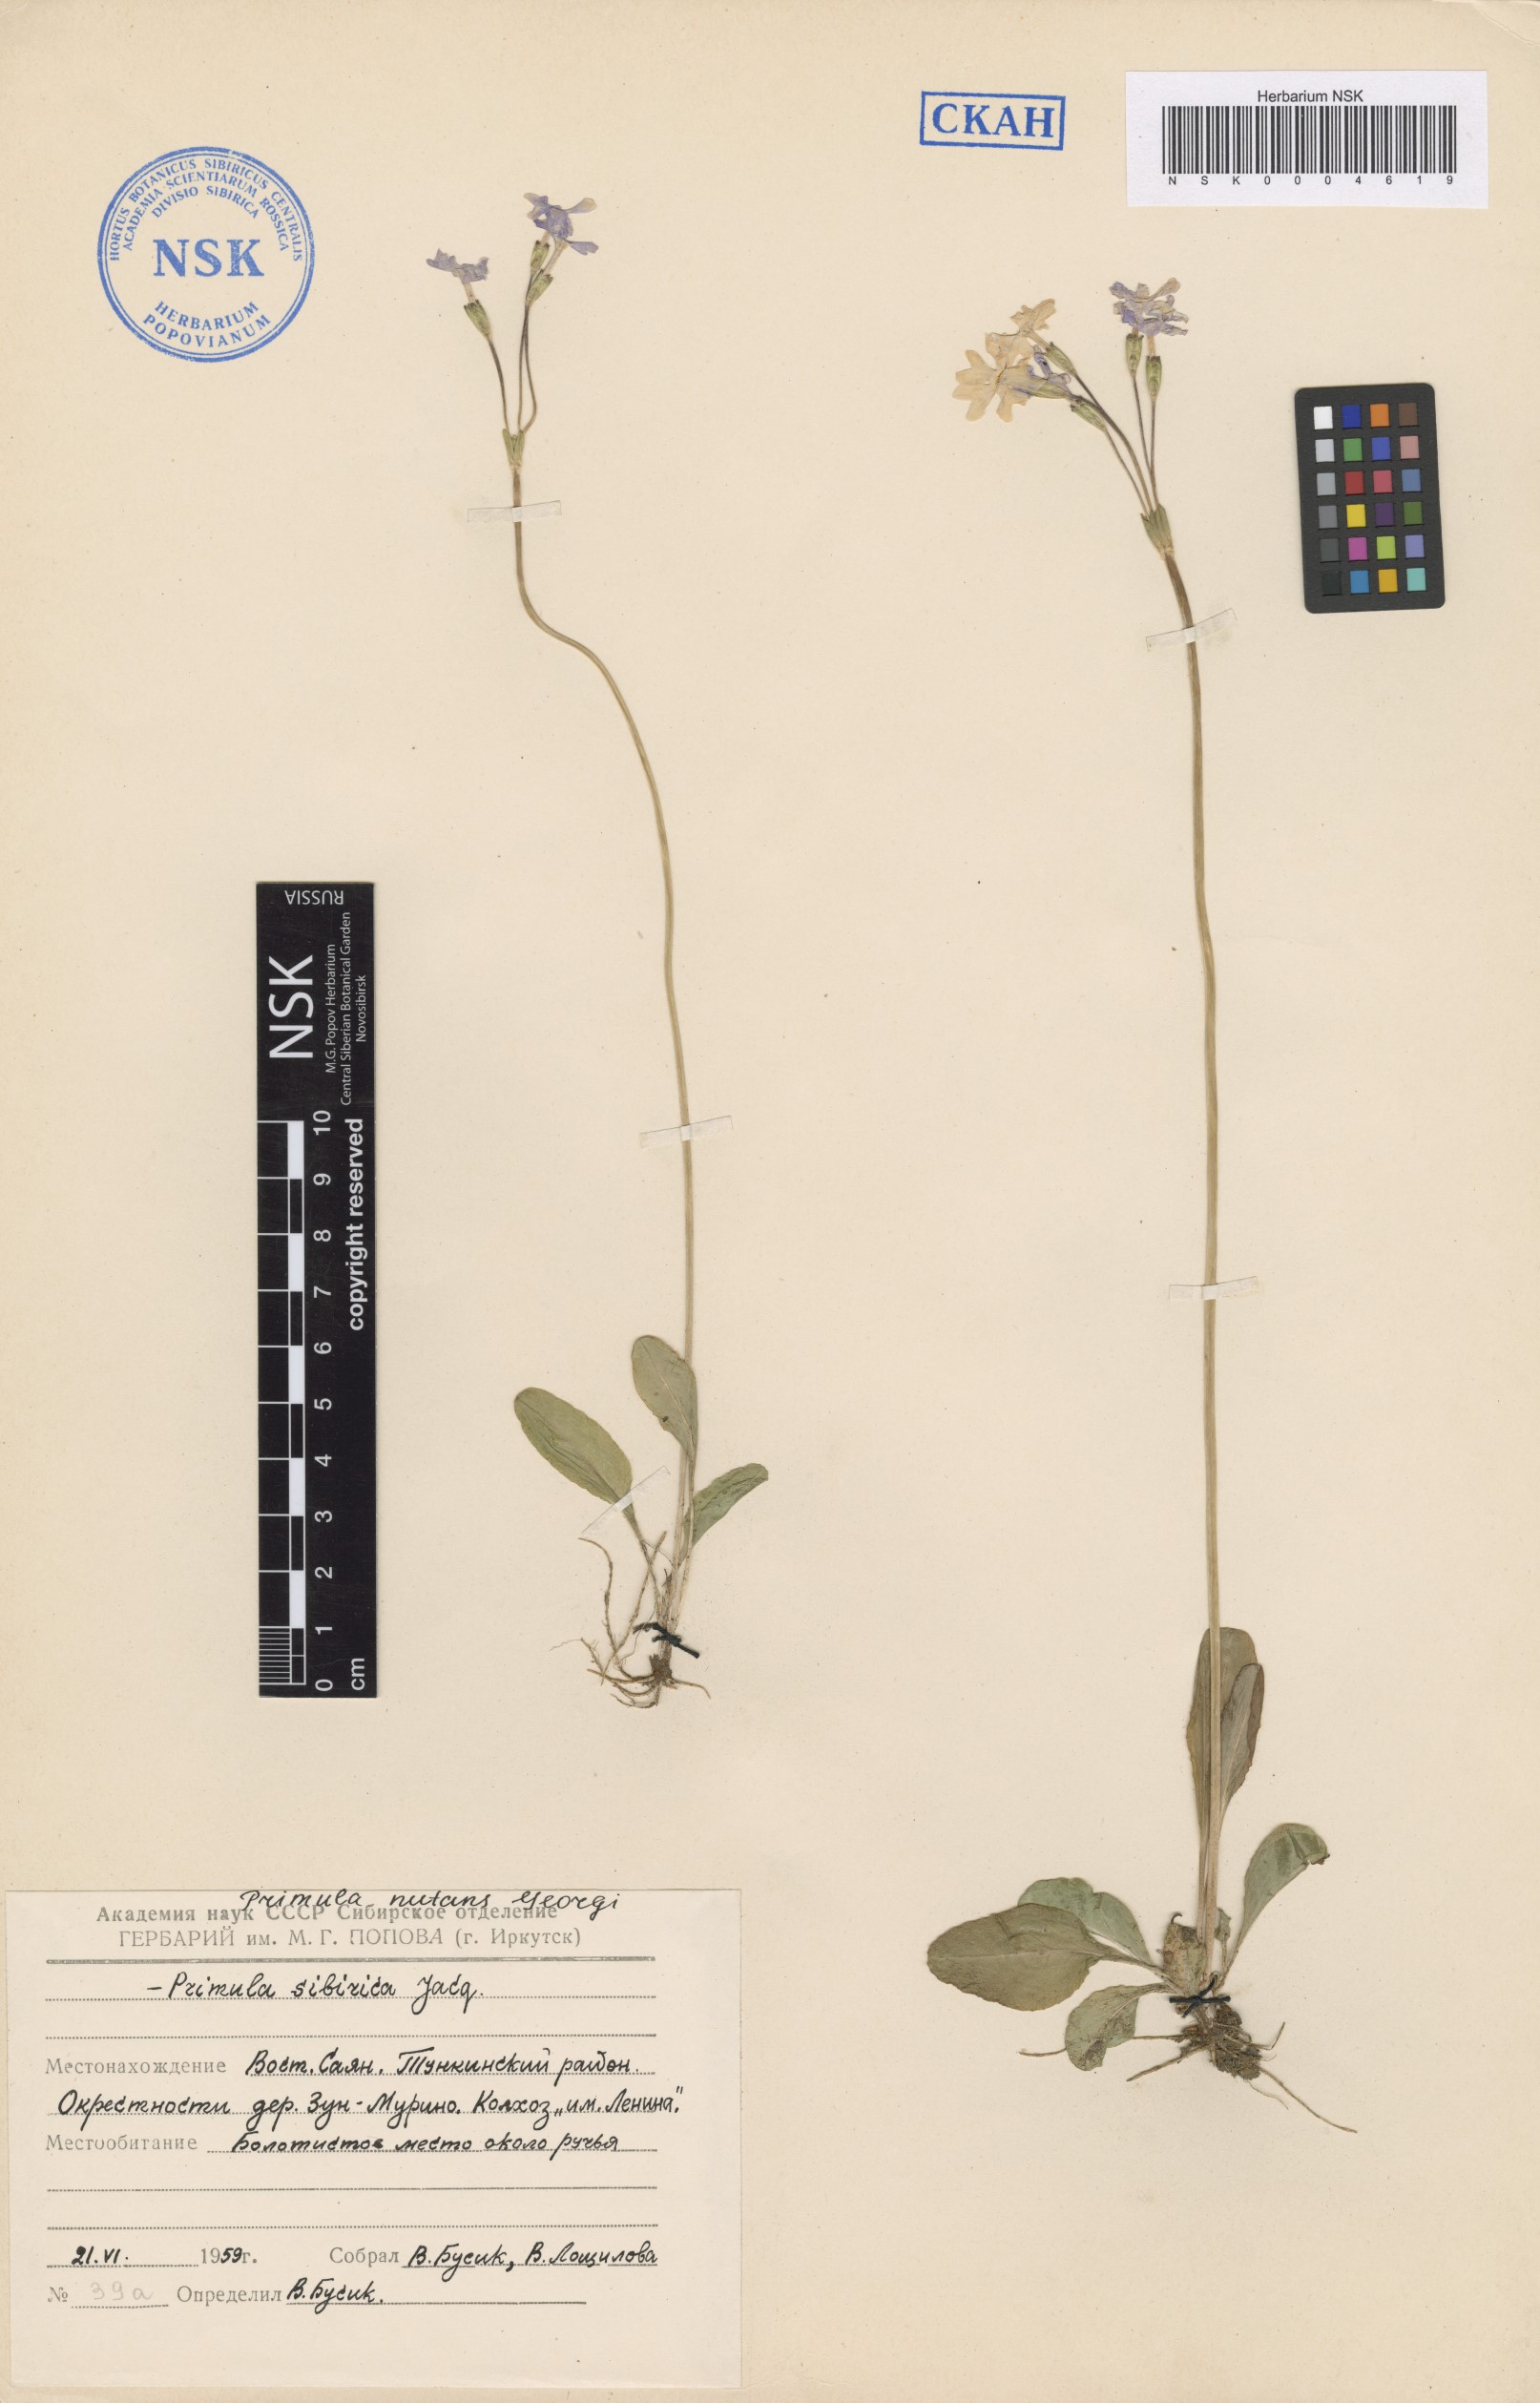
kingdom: Plantae
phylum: Tracheophyta
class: Magnoliopsida
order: Ericales
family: Primulaceae
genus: Primula
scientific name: Primula nutans
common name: Siberian primrose
